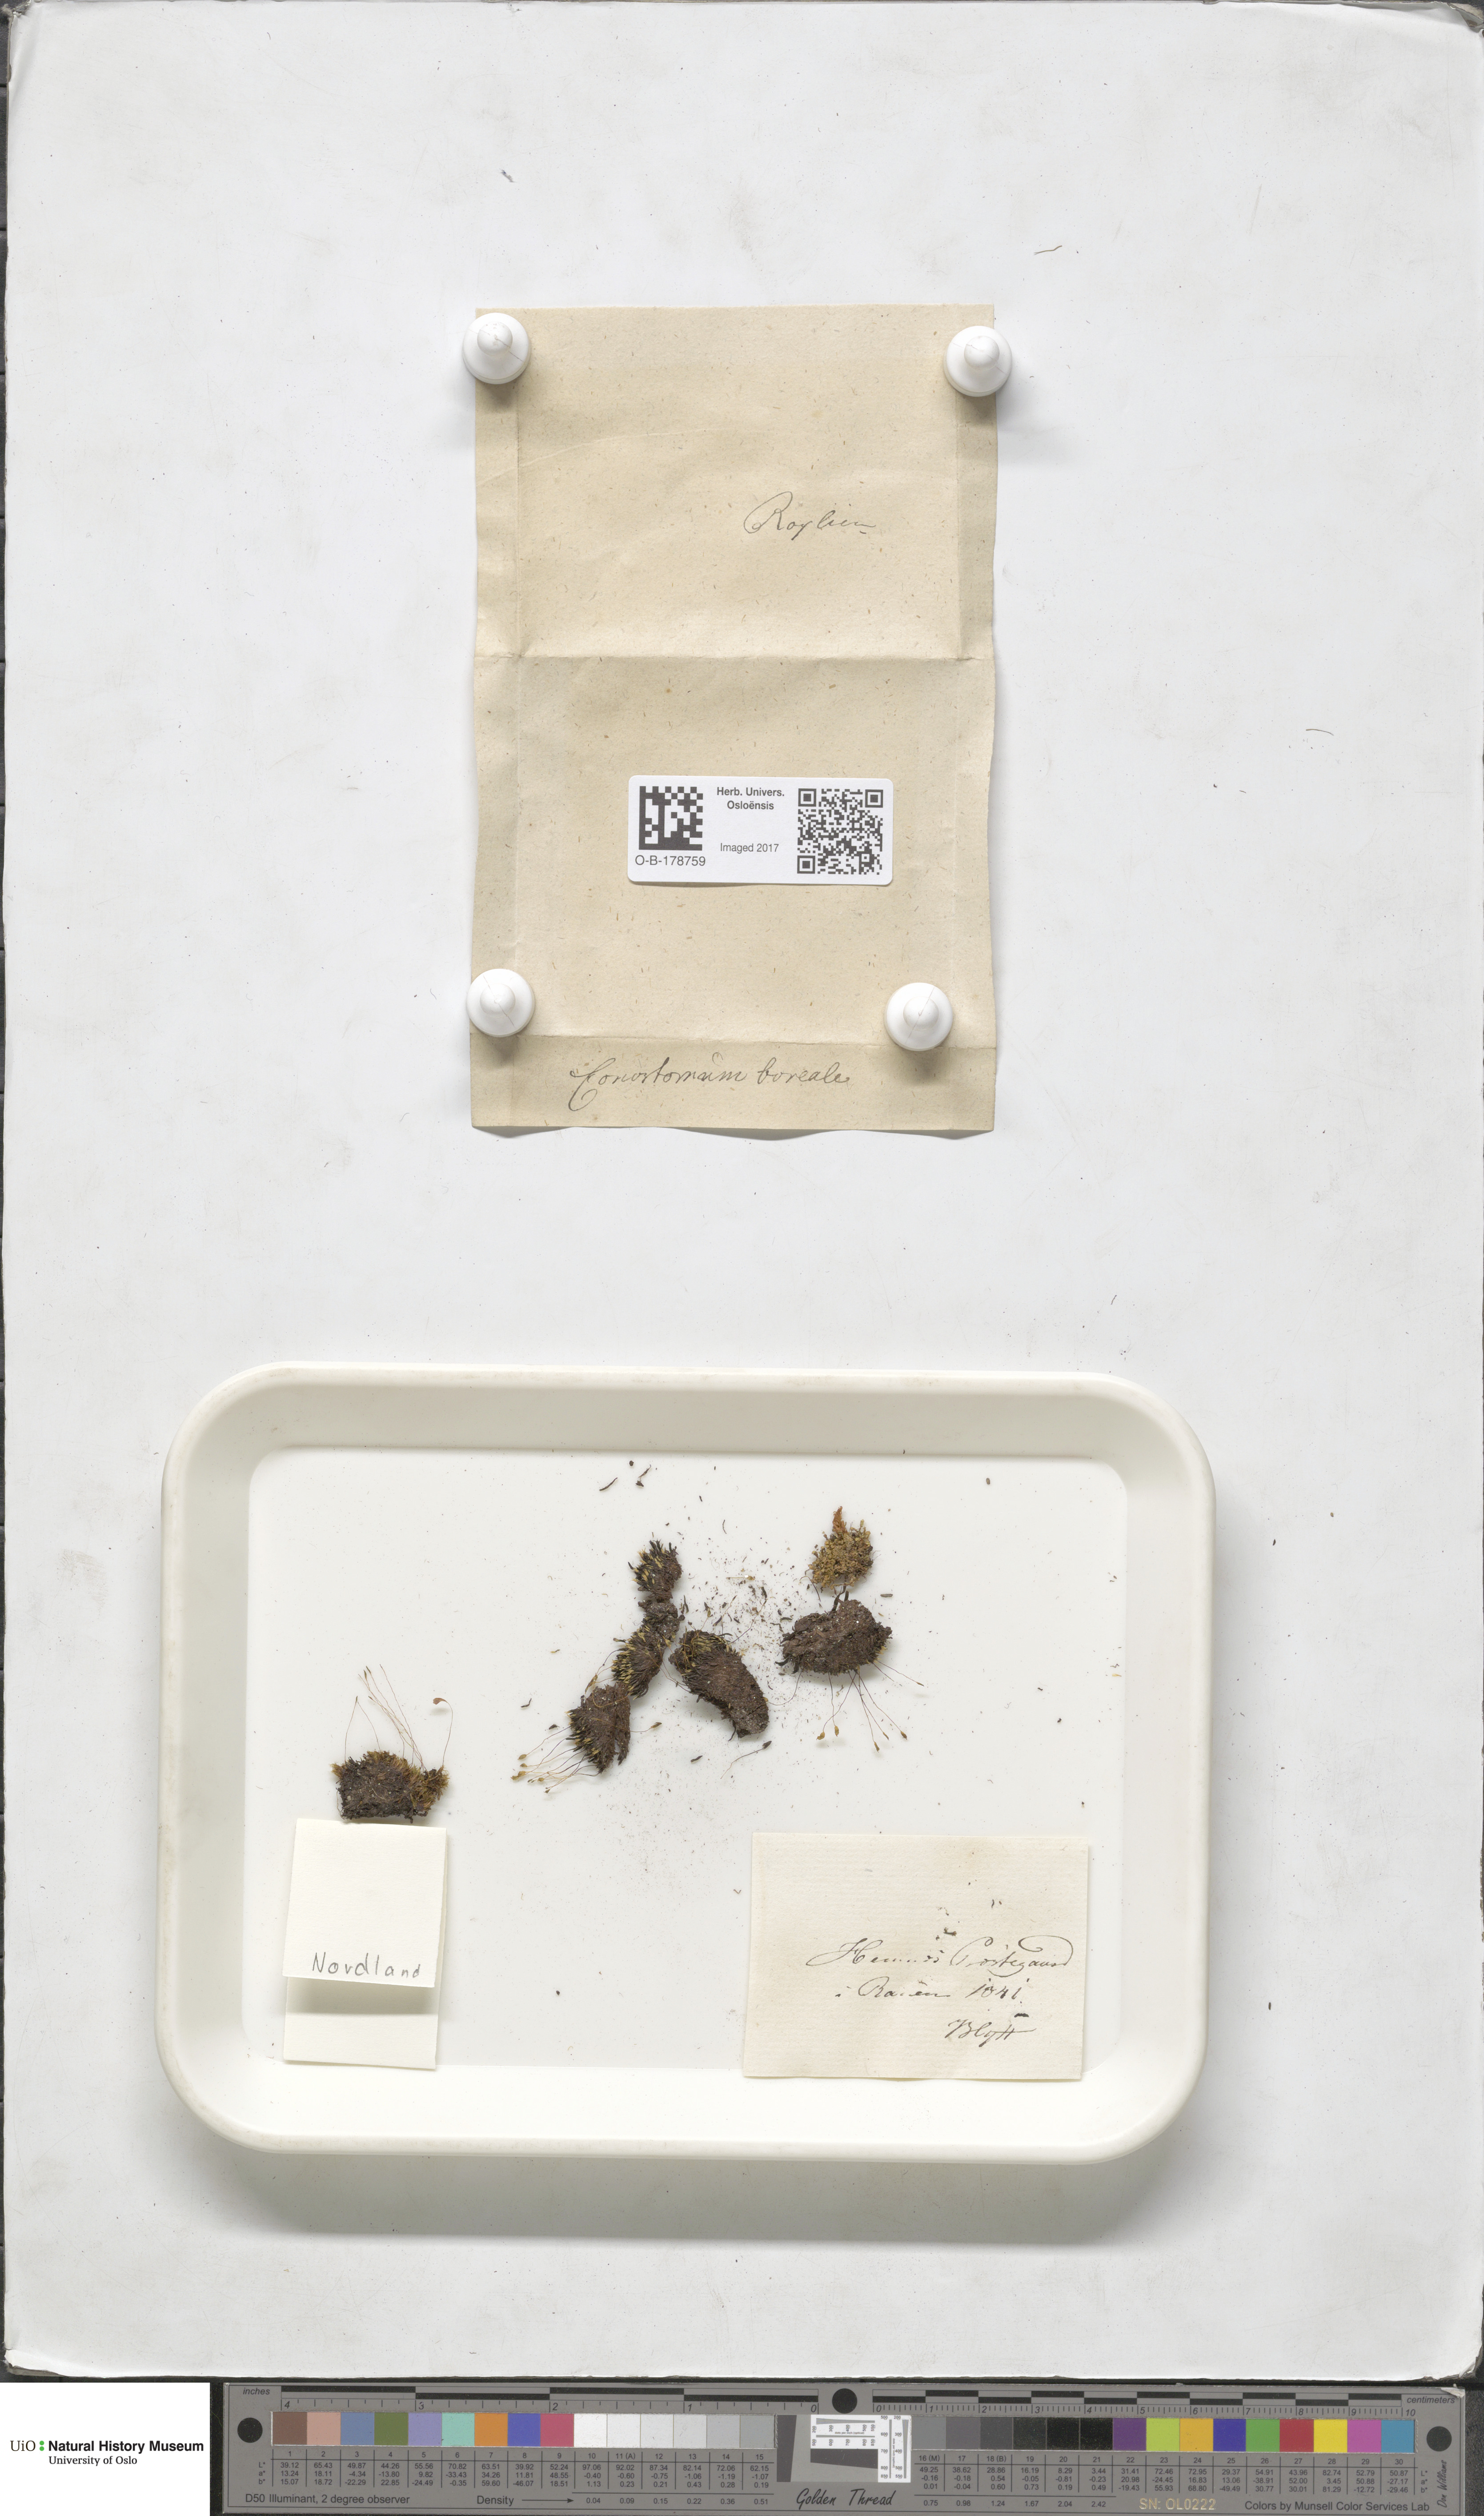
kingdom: Plantae
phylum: Bryophyta
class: Bryopsida
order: Bartramiales
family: Bartramiaceae
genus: Conostomum
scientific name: Conostomum tetragonum
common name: Helmet moss
